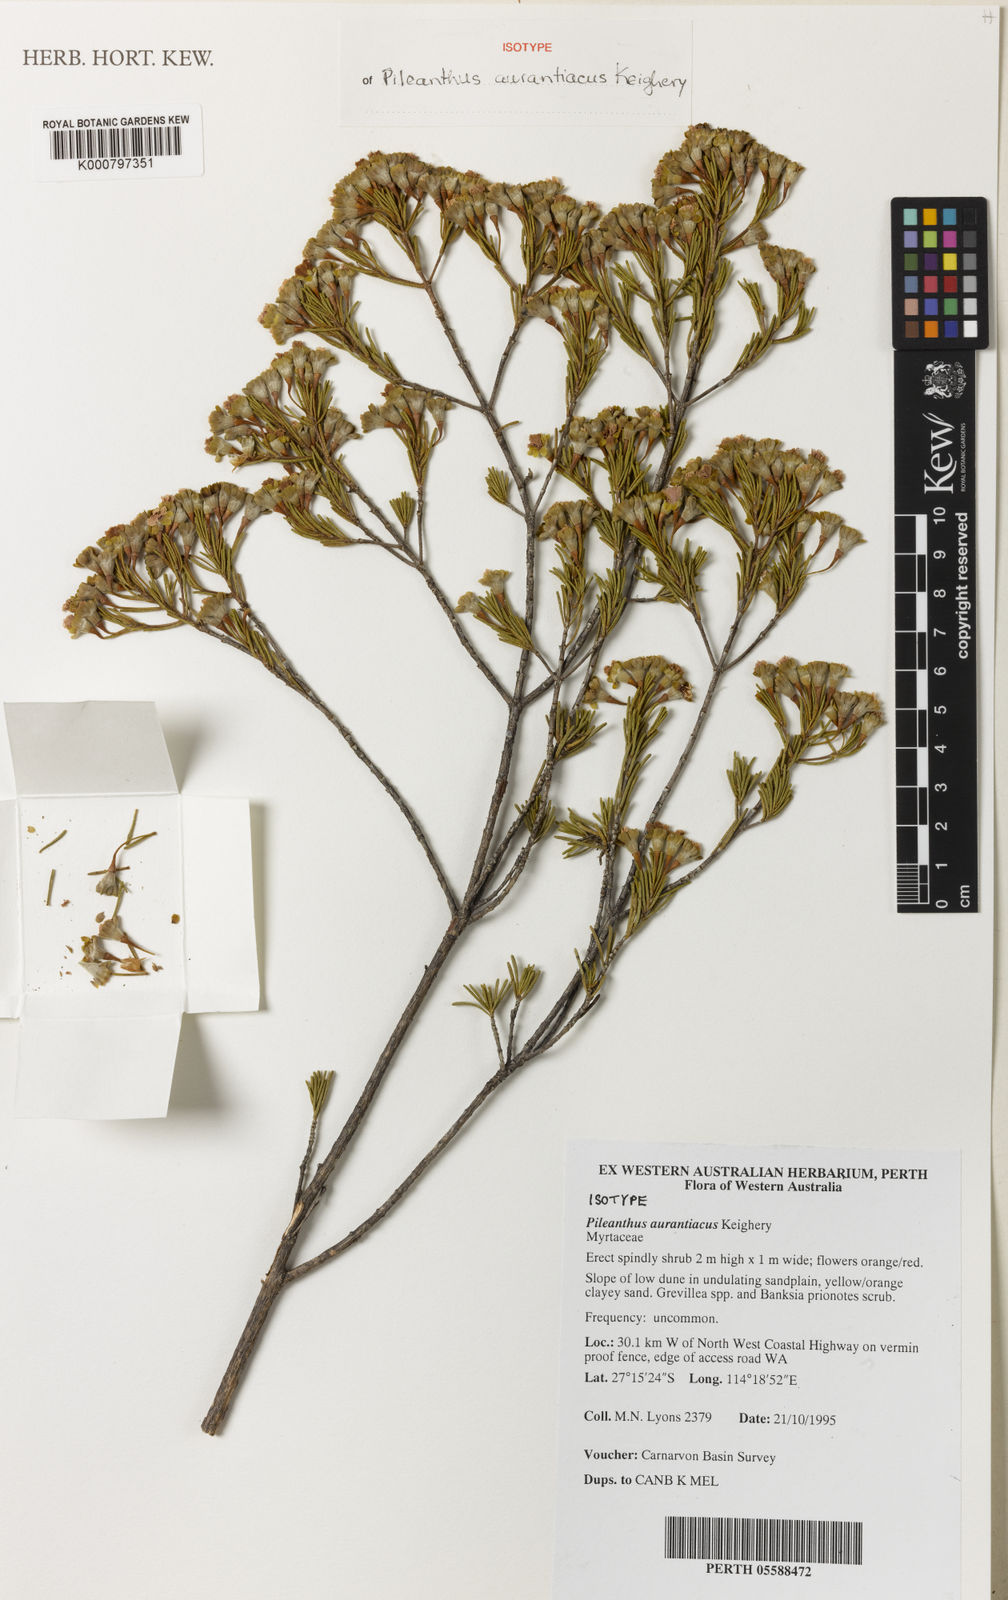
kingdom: Plantae
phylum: Tracheophyta
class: Magnoliopsida
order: Myrtales
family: Myrtaceae
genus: Pileanthus
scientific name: Pileanthus aurantiacus
